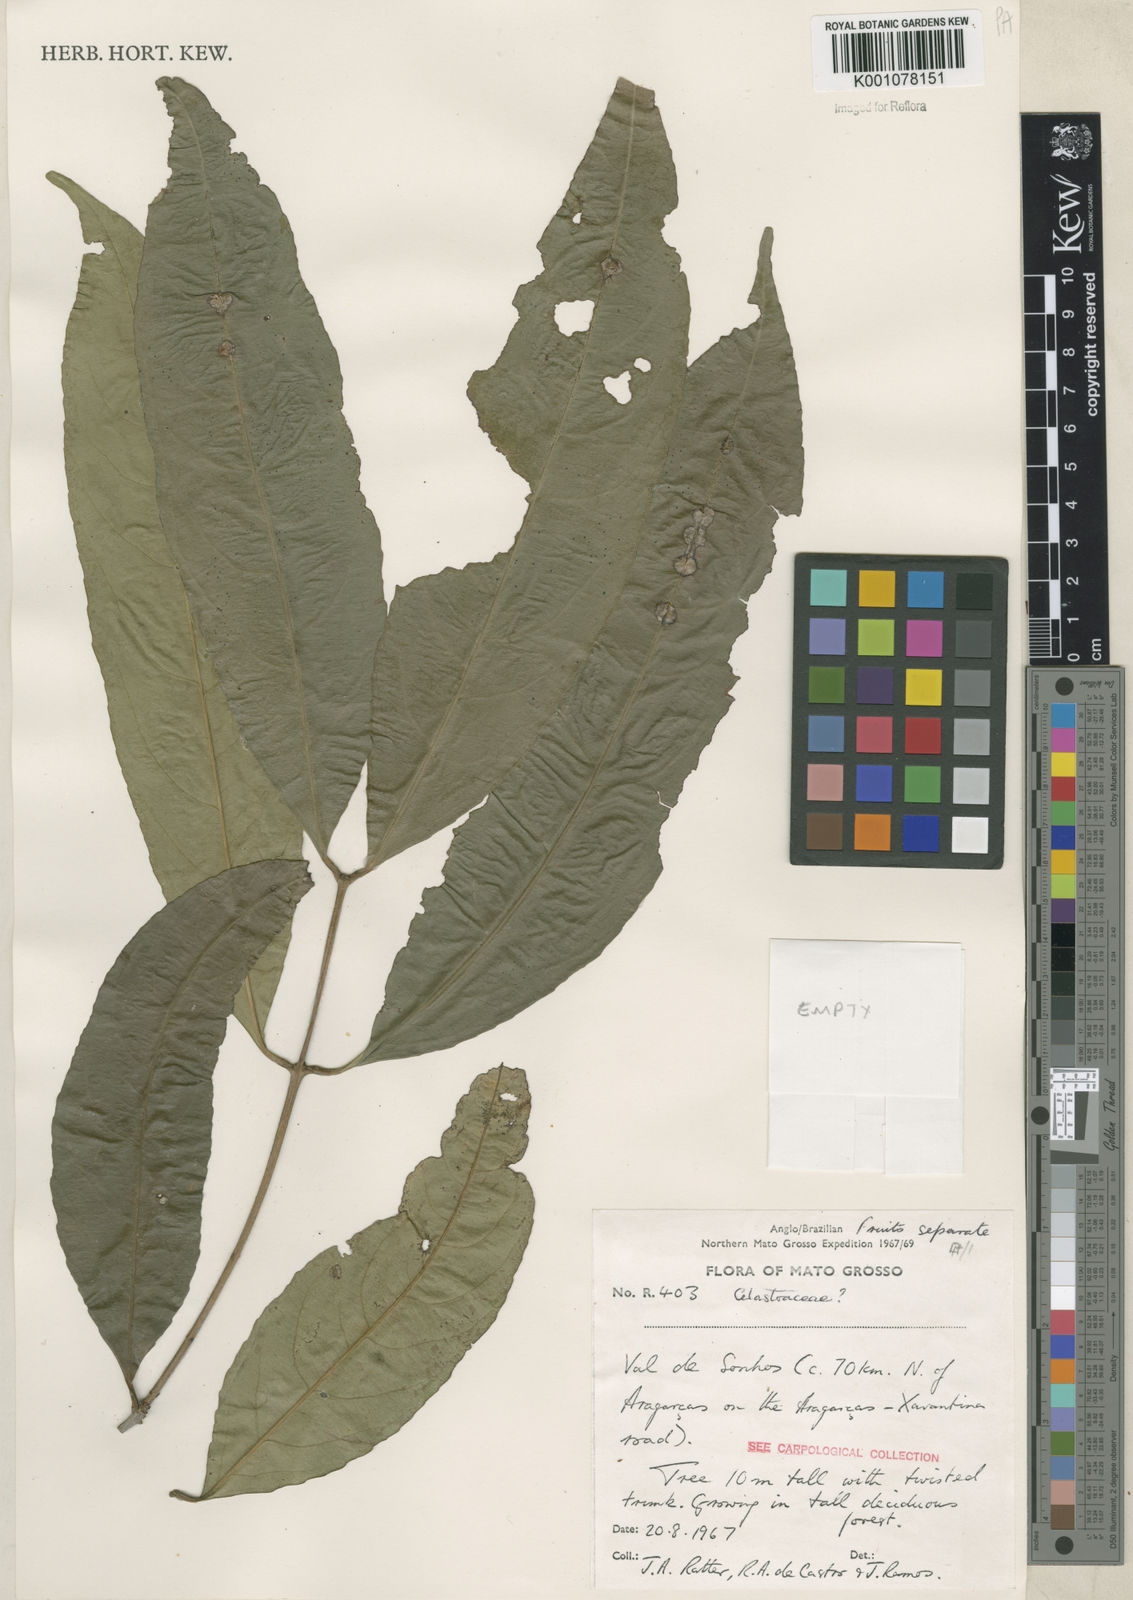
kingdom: Plantae
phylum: Tracheophyta
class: Magnoliopsida
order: Celastrales
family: Celastraceae
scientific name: Celastraceae
